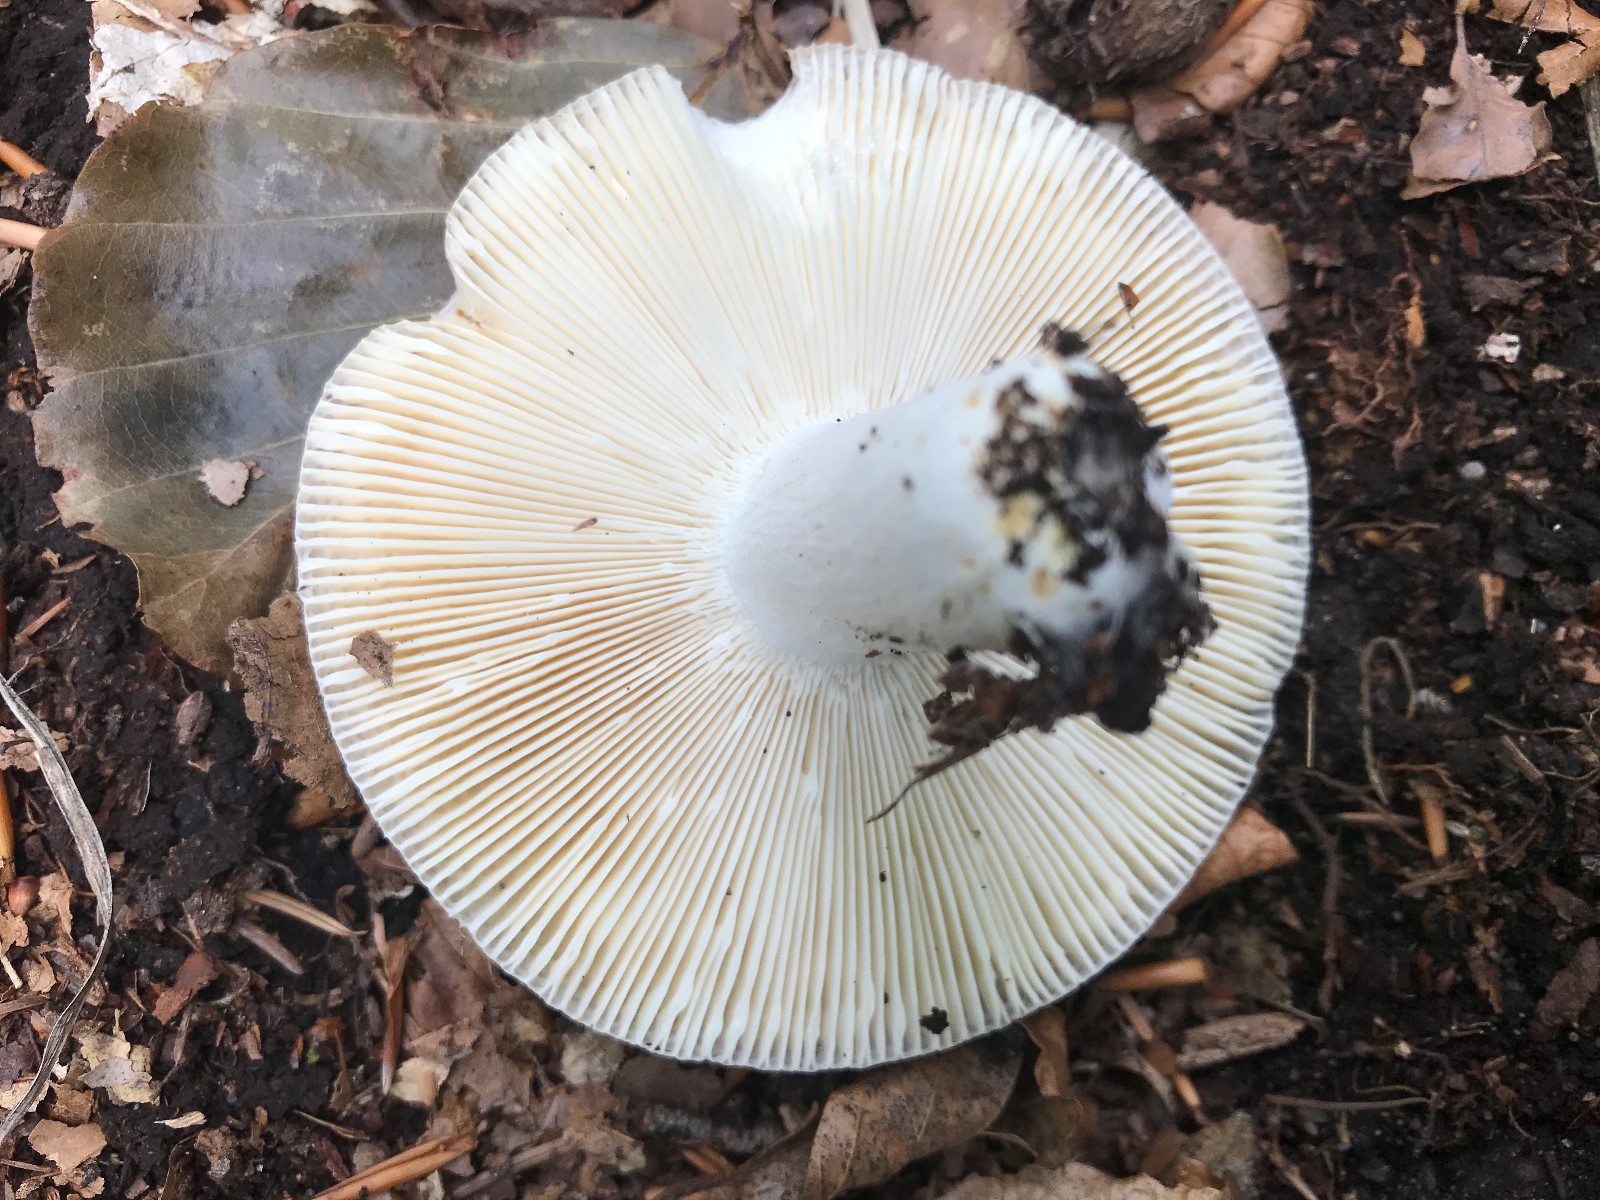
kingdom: Fungi
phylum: Basidiomycota
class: Agaricomycetes
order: Russulales
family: Russulaceae
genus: Russula
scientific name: Russula vesca
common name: spiselig skørhat
